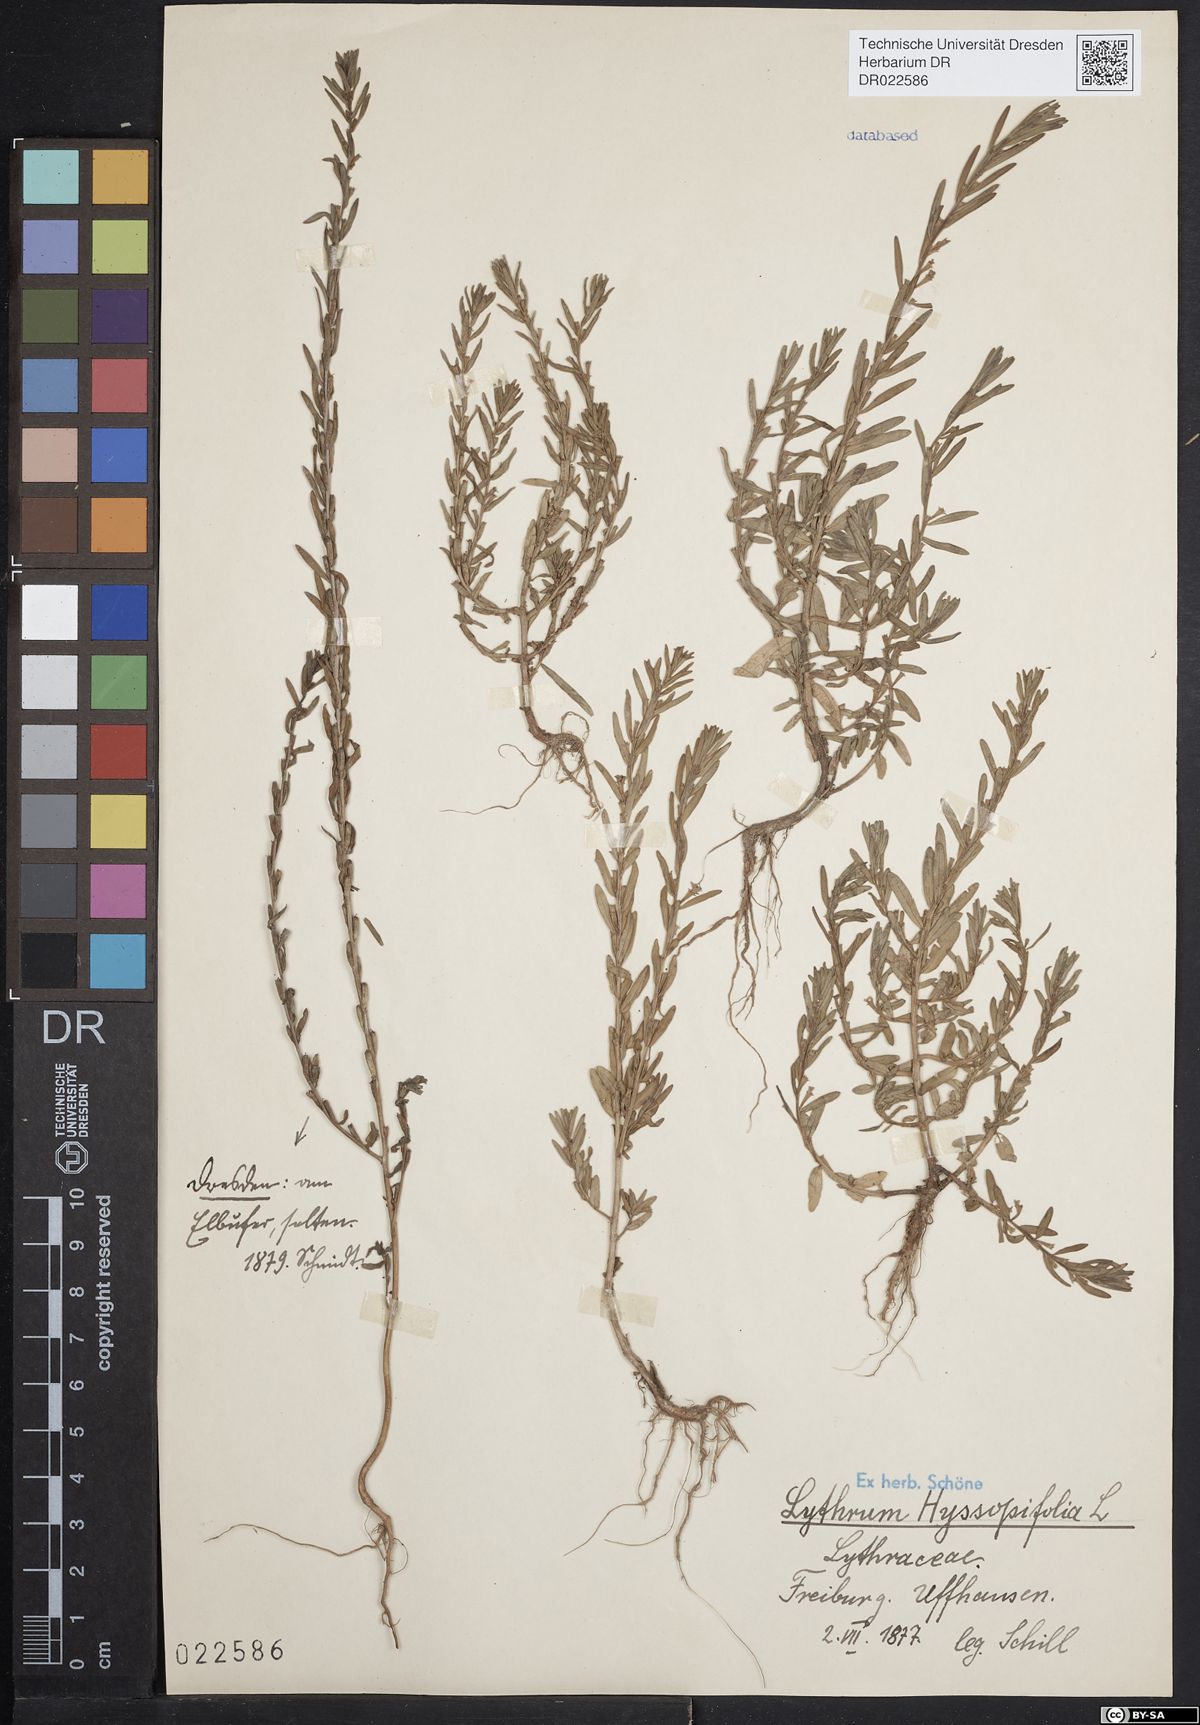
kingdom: Plantae
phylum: Tracheophyta
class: Magnoliopsida
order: Myrtales
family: Lythraceae
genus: Lythrum
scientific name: Lythrum hyssopifolia
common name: Grass-poly
